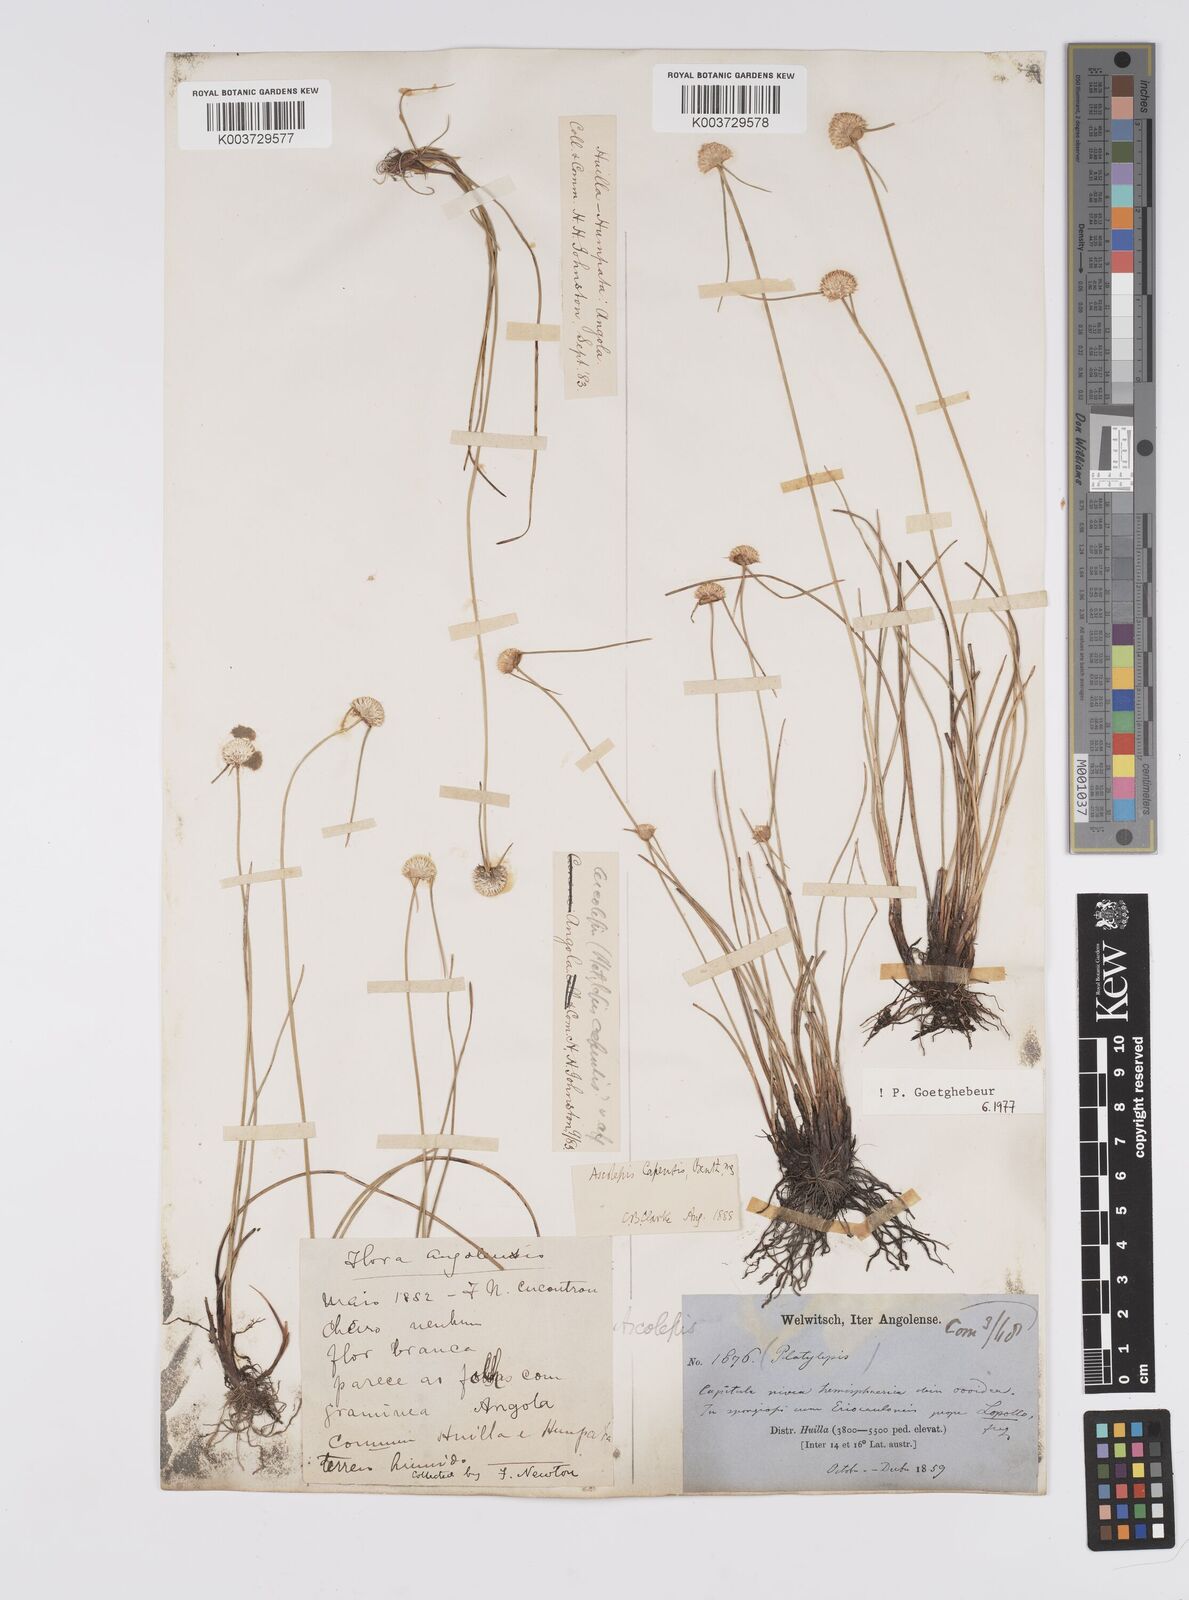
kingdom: Plantae
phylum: Tracheophyta
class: Liliopsida
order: Poales
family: Cyperaceae
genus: Cyperus
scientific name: Cyperus
